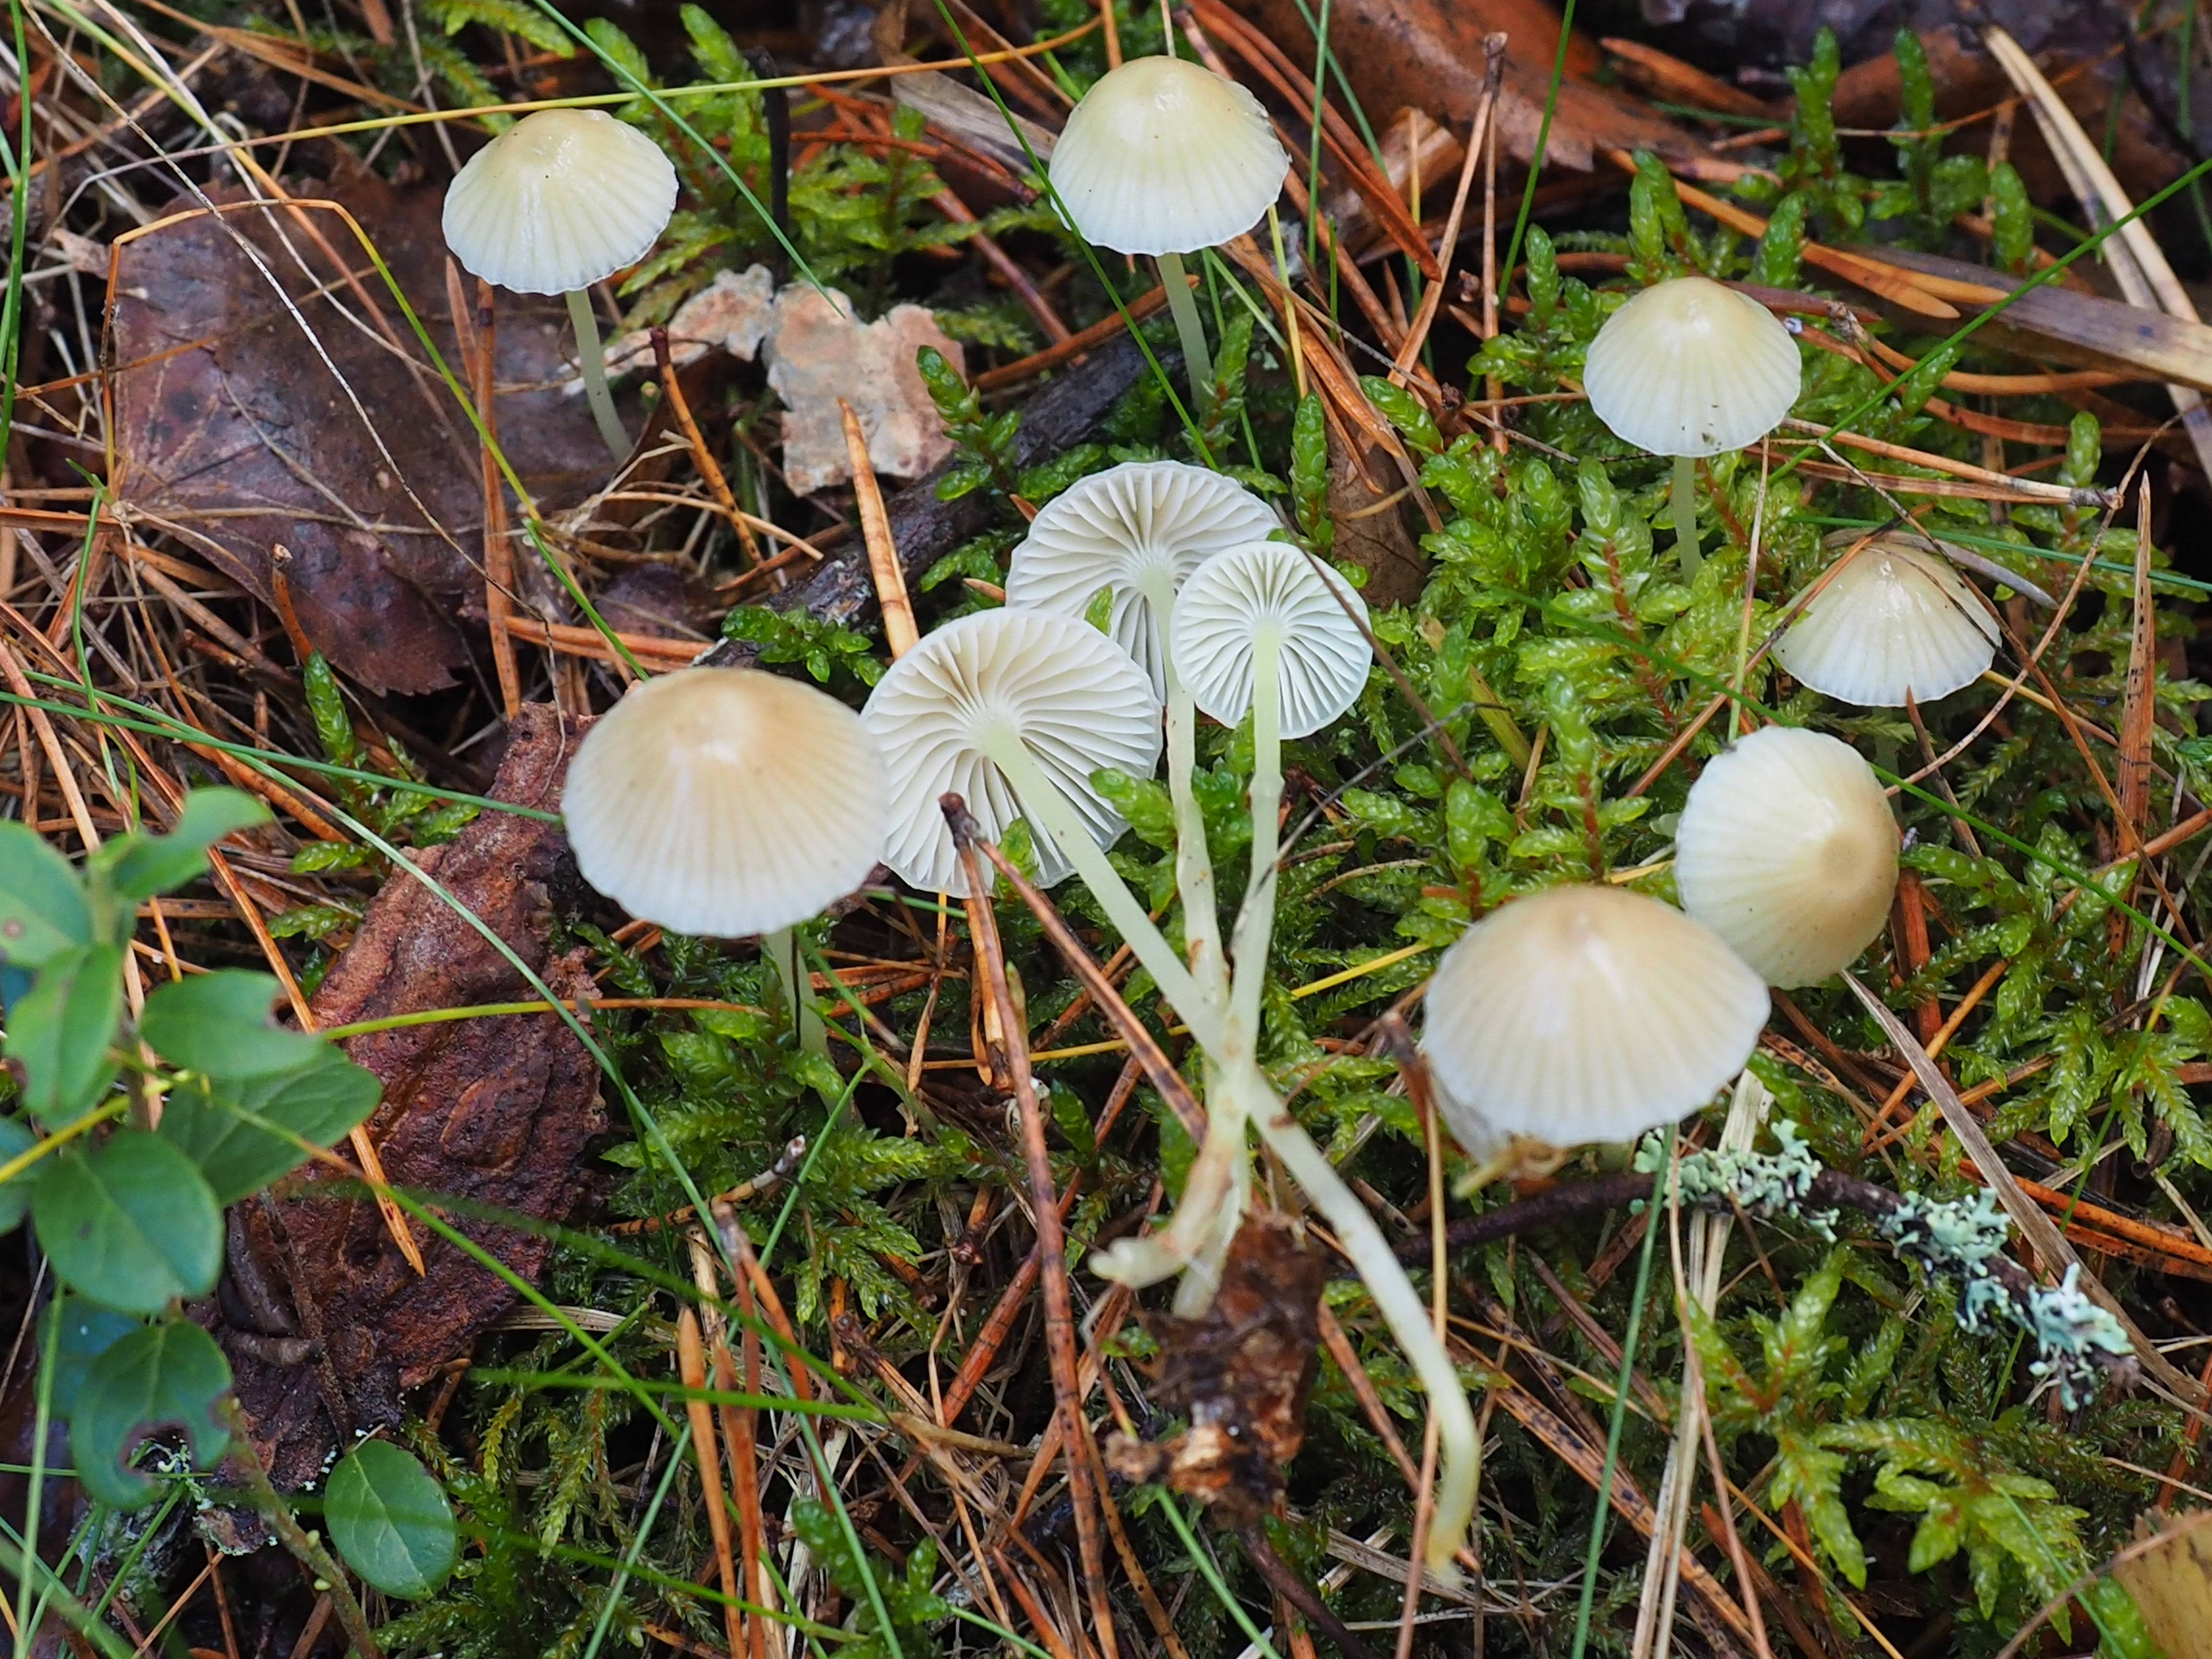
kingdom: Fungi
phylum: Basidiomycota
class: Agaricomycetes
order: Agaricales
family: Mycenaceae
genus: Mycena
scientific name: Mycena epipterygia
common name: Yellowleg bonnet
